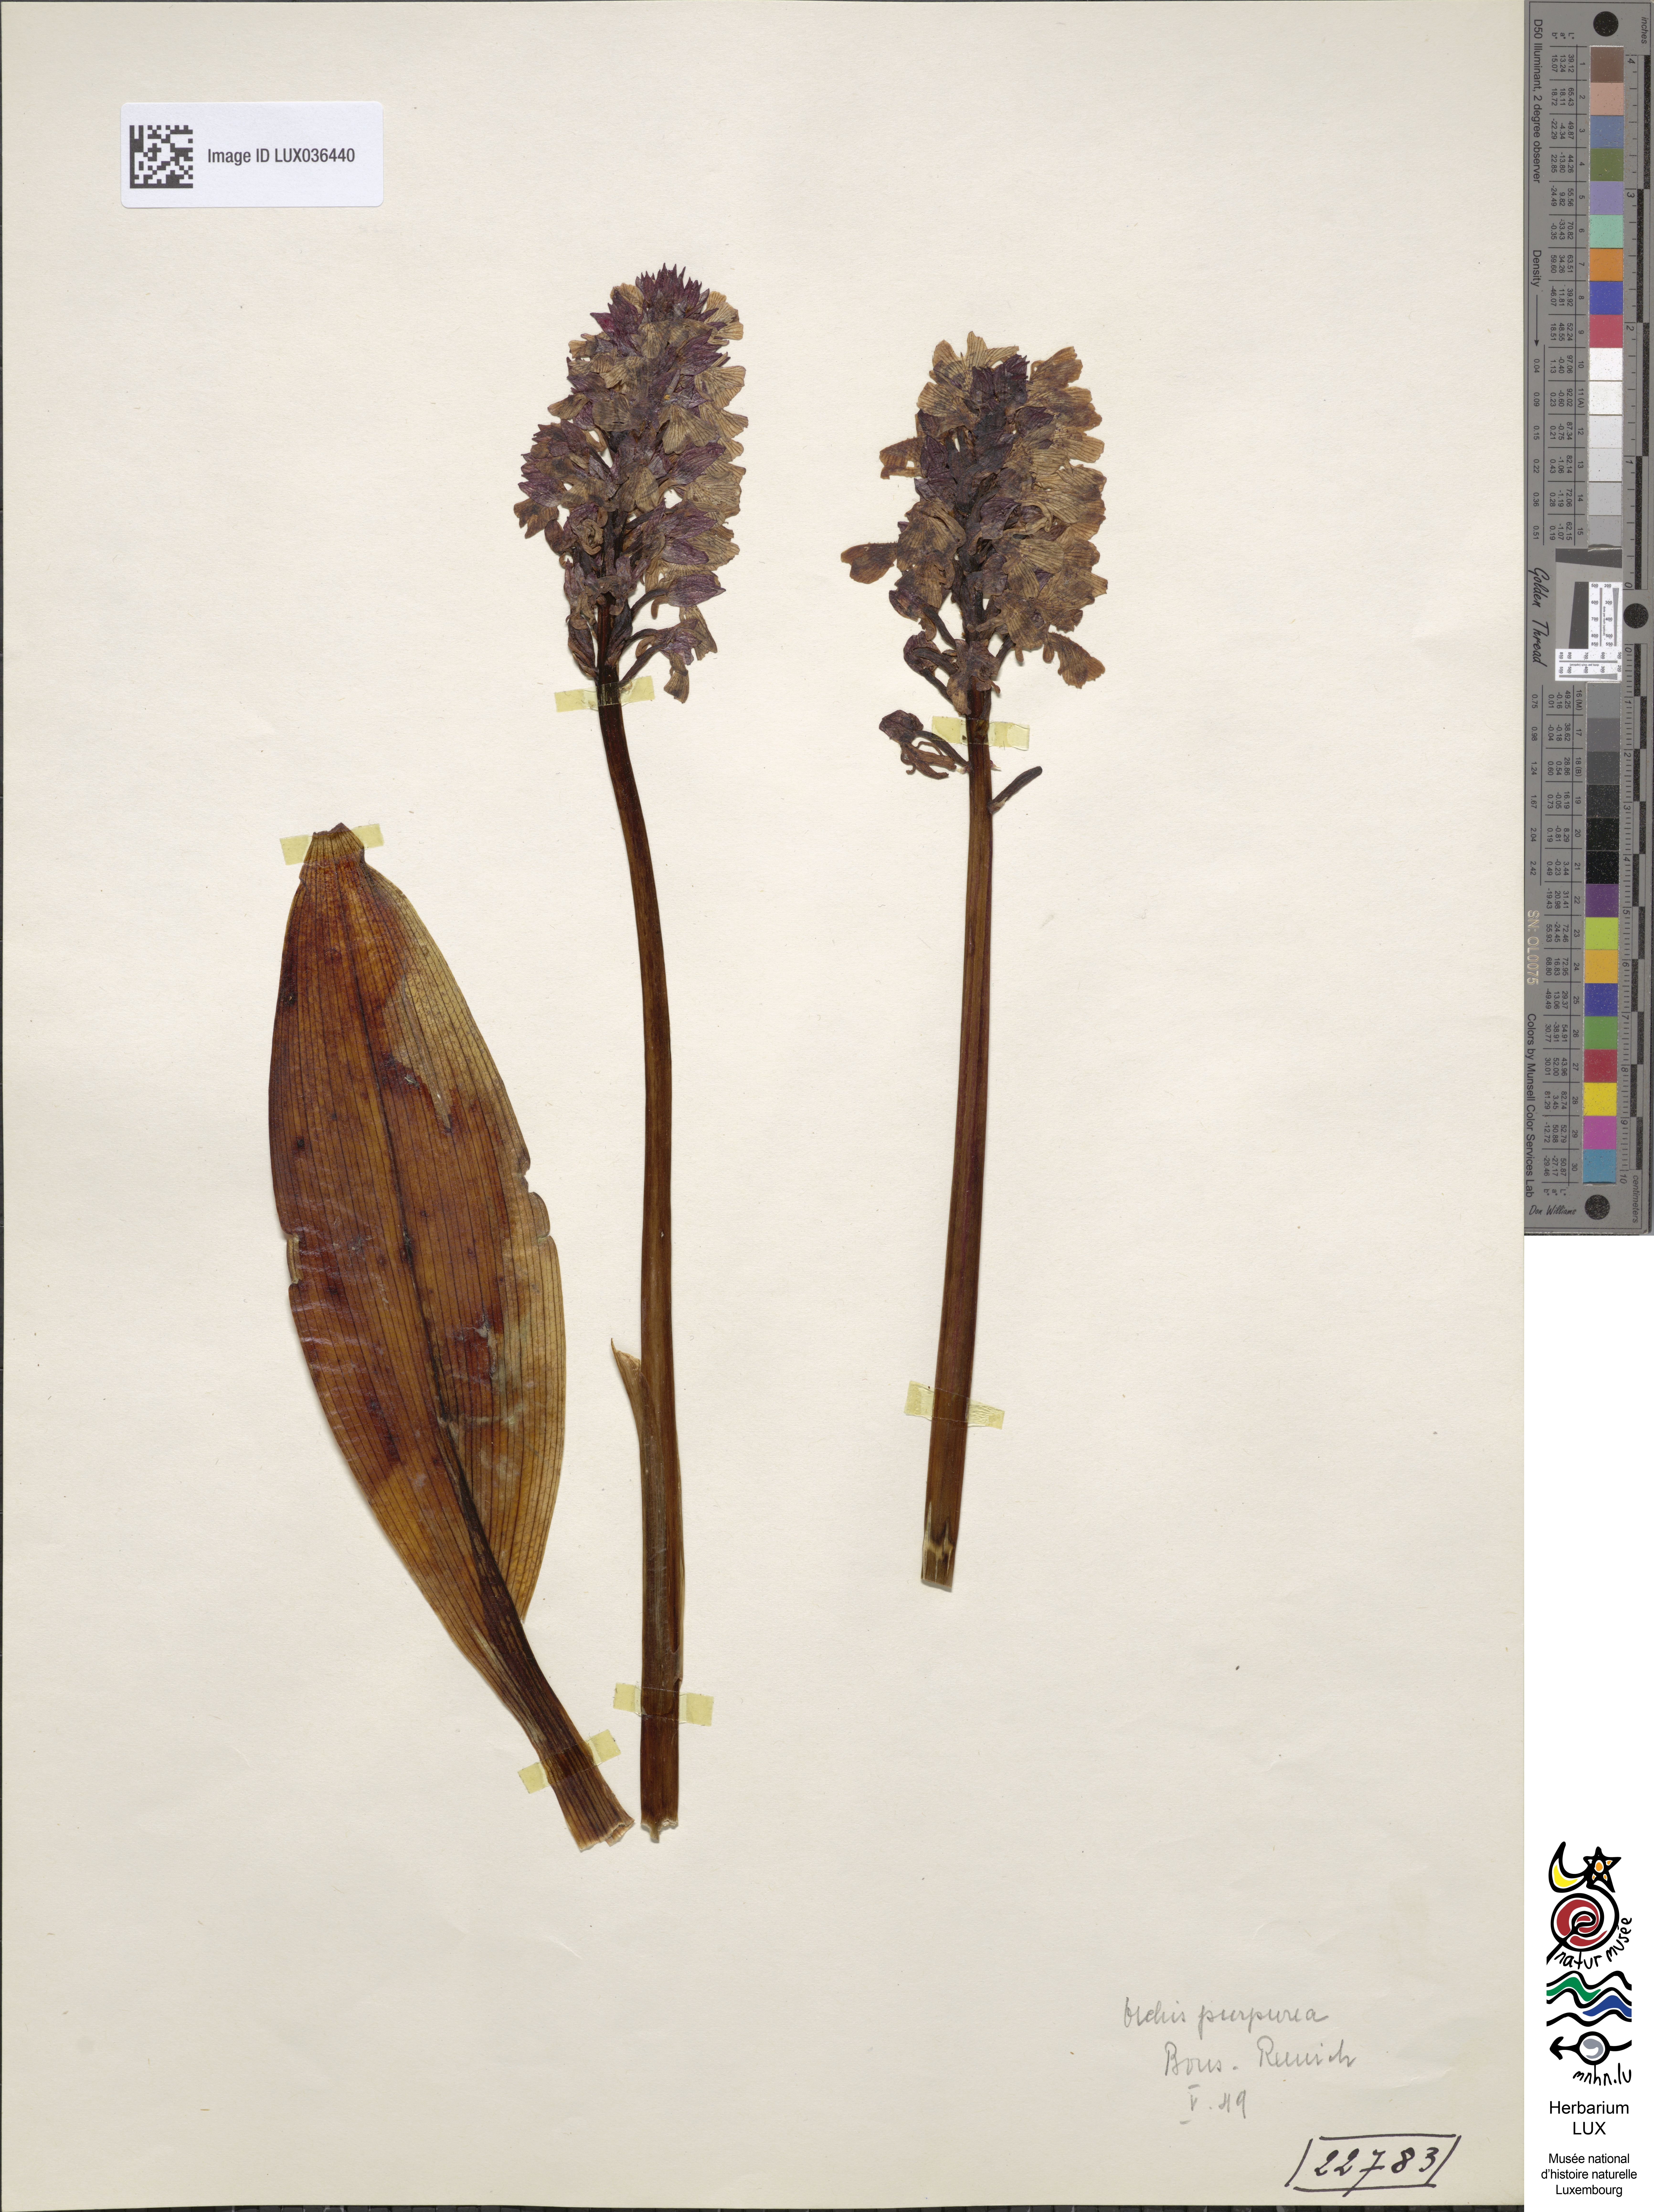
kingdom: Plantae
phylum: Tracheophyta
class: Liliopsida
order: Asparagales
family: Orchidaceae
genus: Orchis
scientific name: Orchis purpurea
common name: Lady orchid
